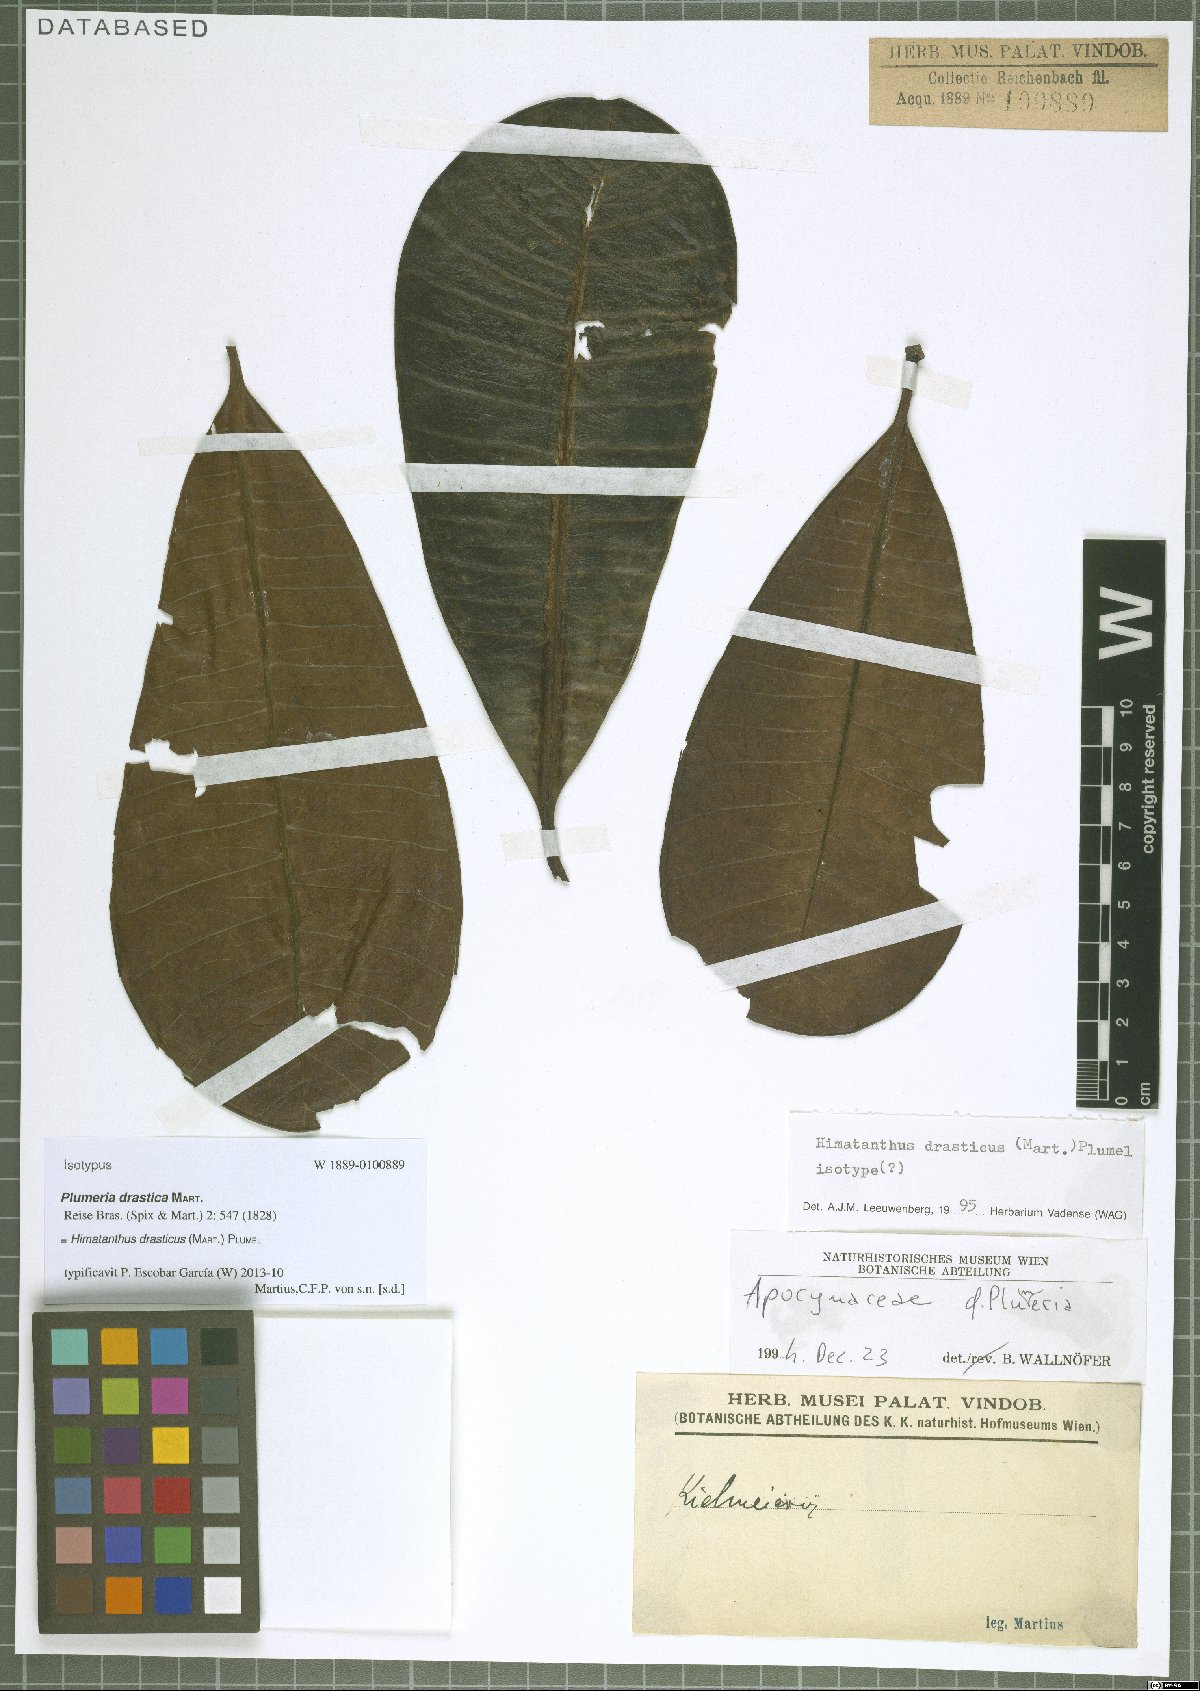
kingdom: Plantae
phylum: Tracheophyta
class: Magnoliopsida
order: Gentianales
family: Apocynaceae
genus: Himatanthus
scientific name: Himatanthus drasticus
